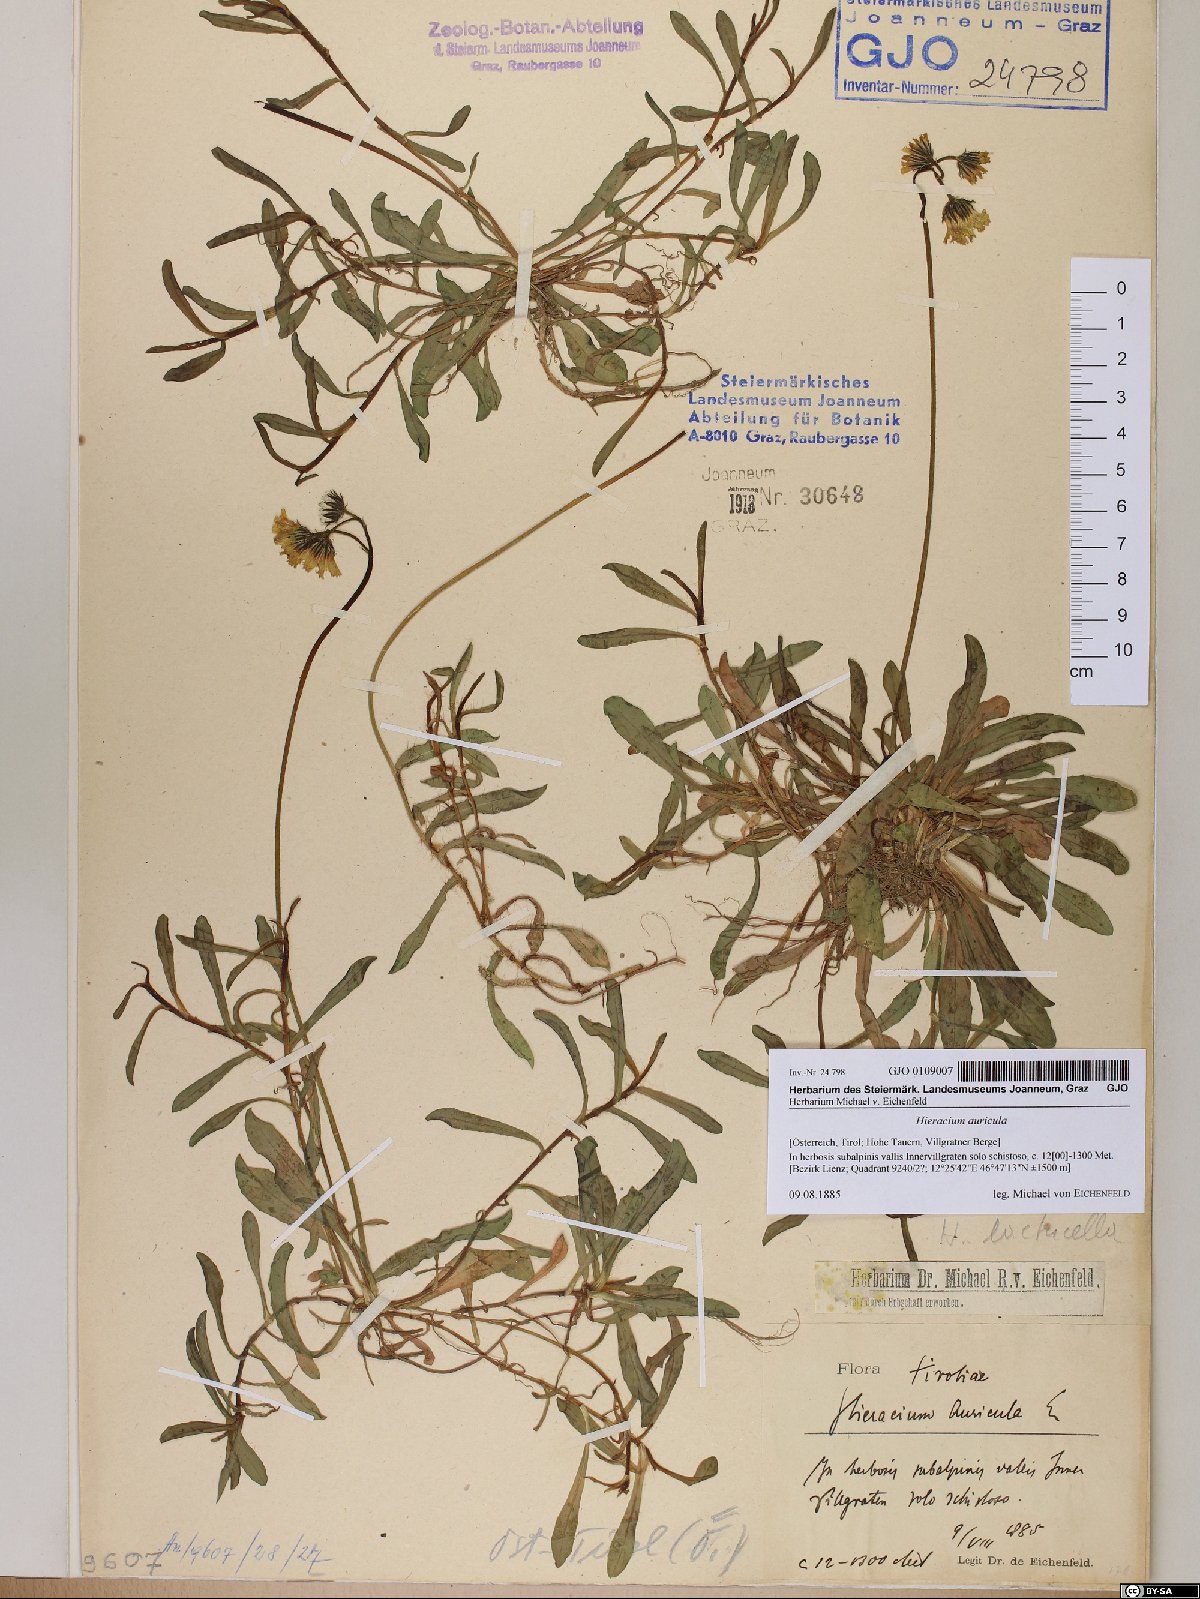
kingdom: Plantae
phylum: Tracheophyta
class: Magnoliopsida
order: Asterales
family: Asteraceae
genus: Hieracium
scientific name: Hieracium auricula
